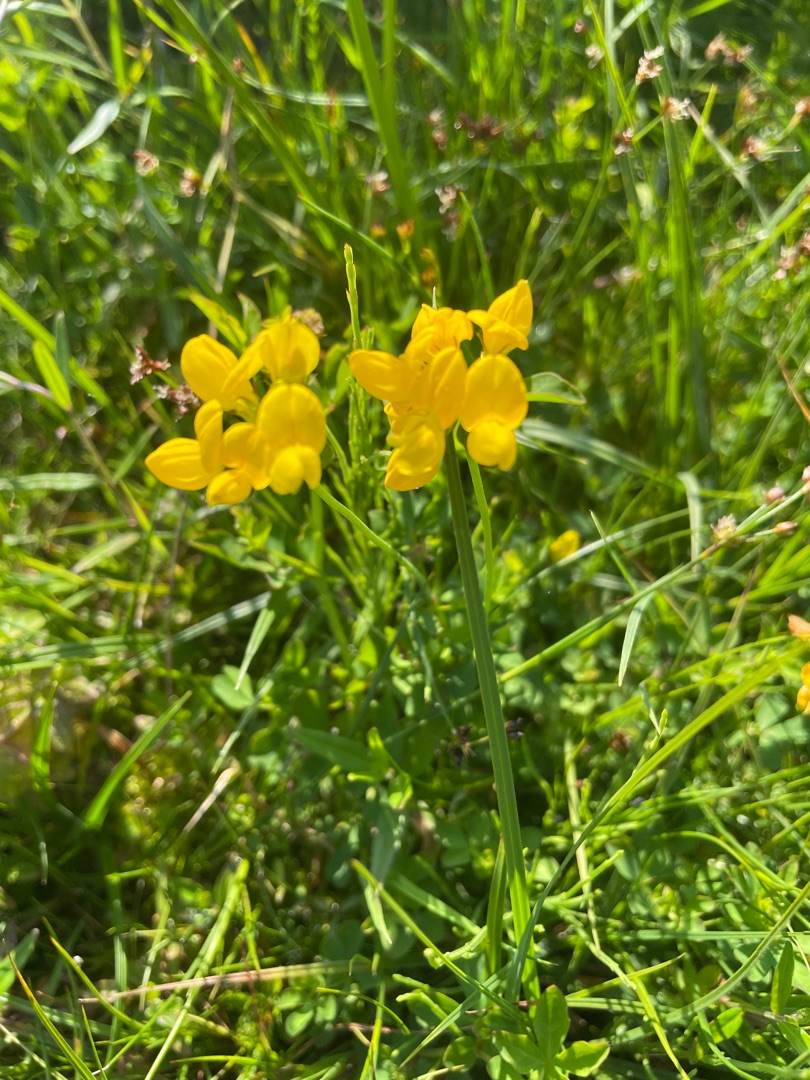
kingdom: Plantae
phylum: Tracheophyta
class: Magnoliopsida
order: Fabales
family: Fabaceae
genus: Lotus
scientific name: Lotus
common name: Kællingetandslægten
